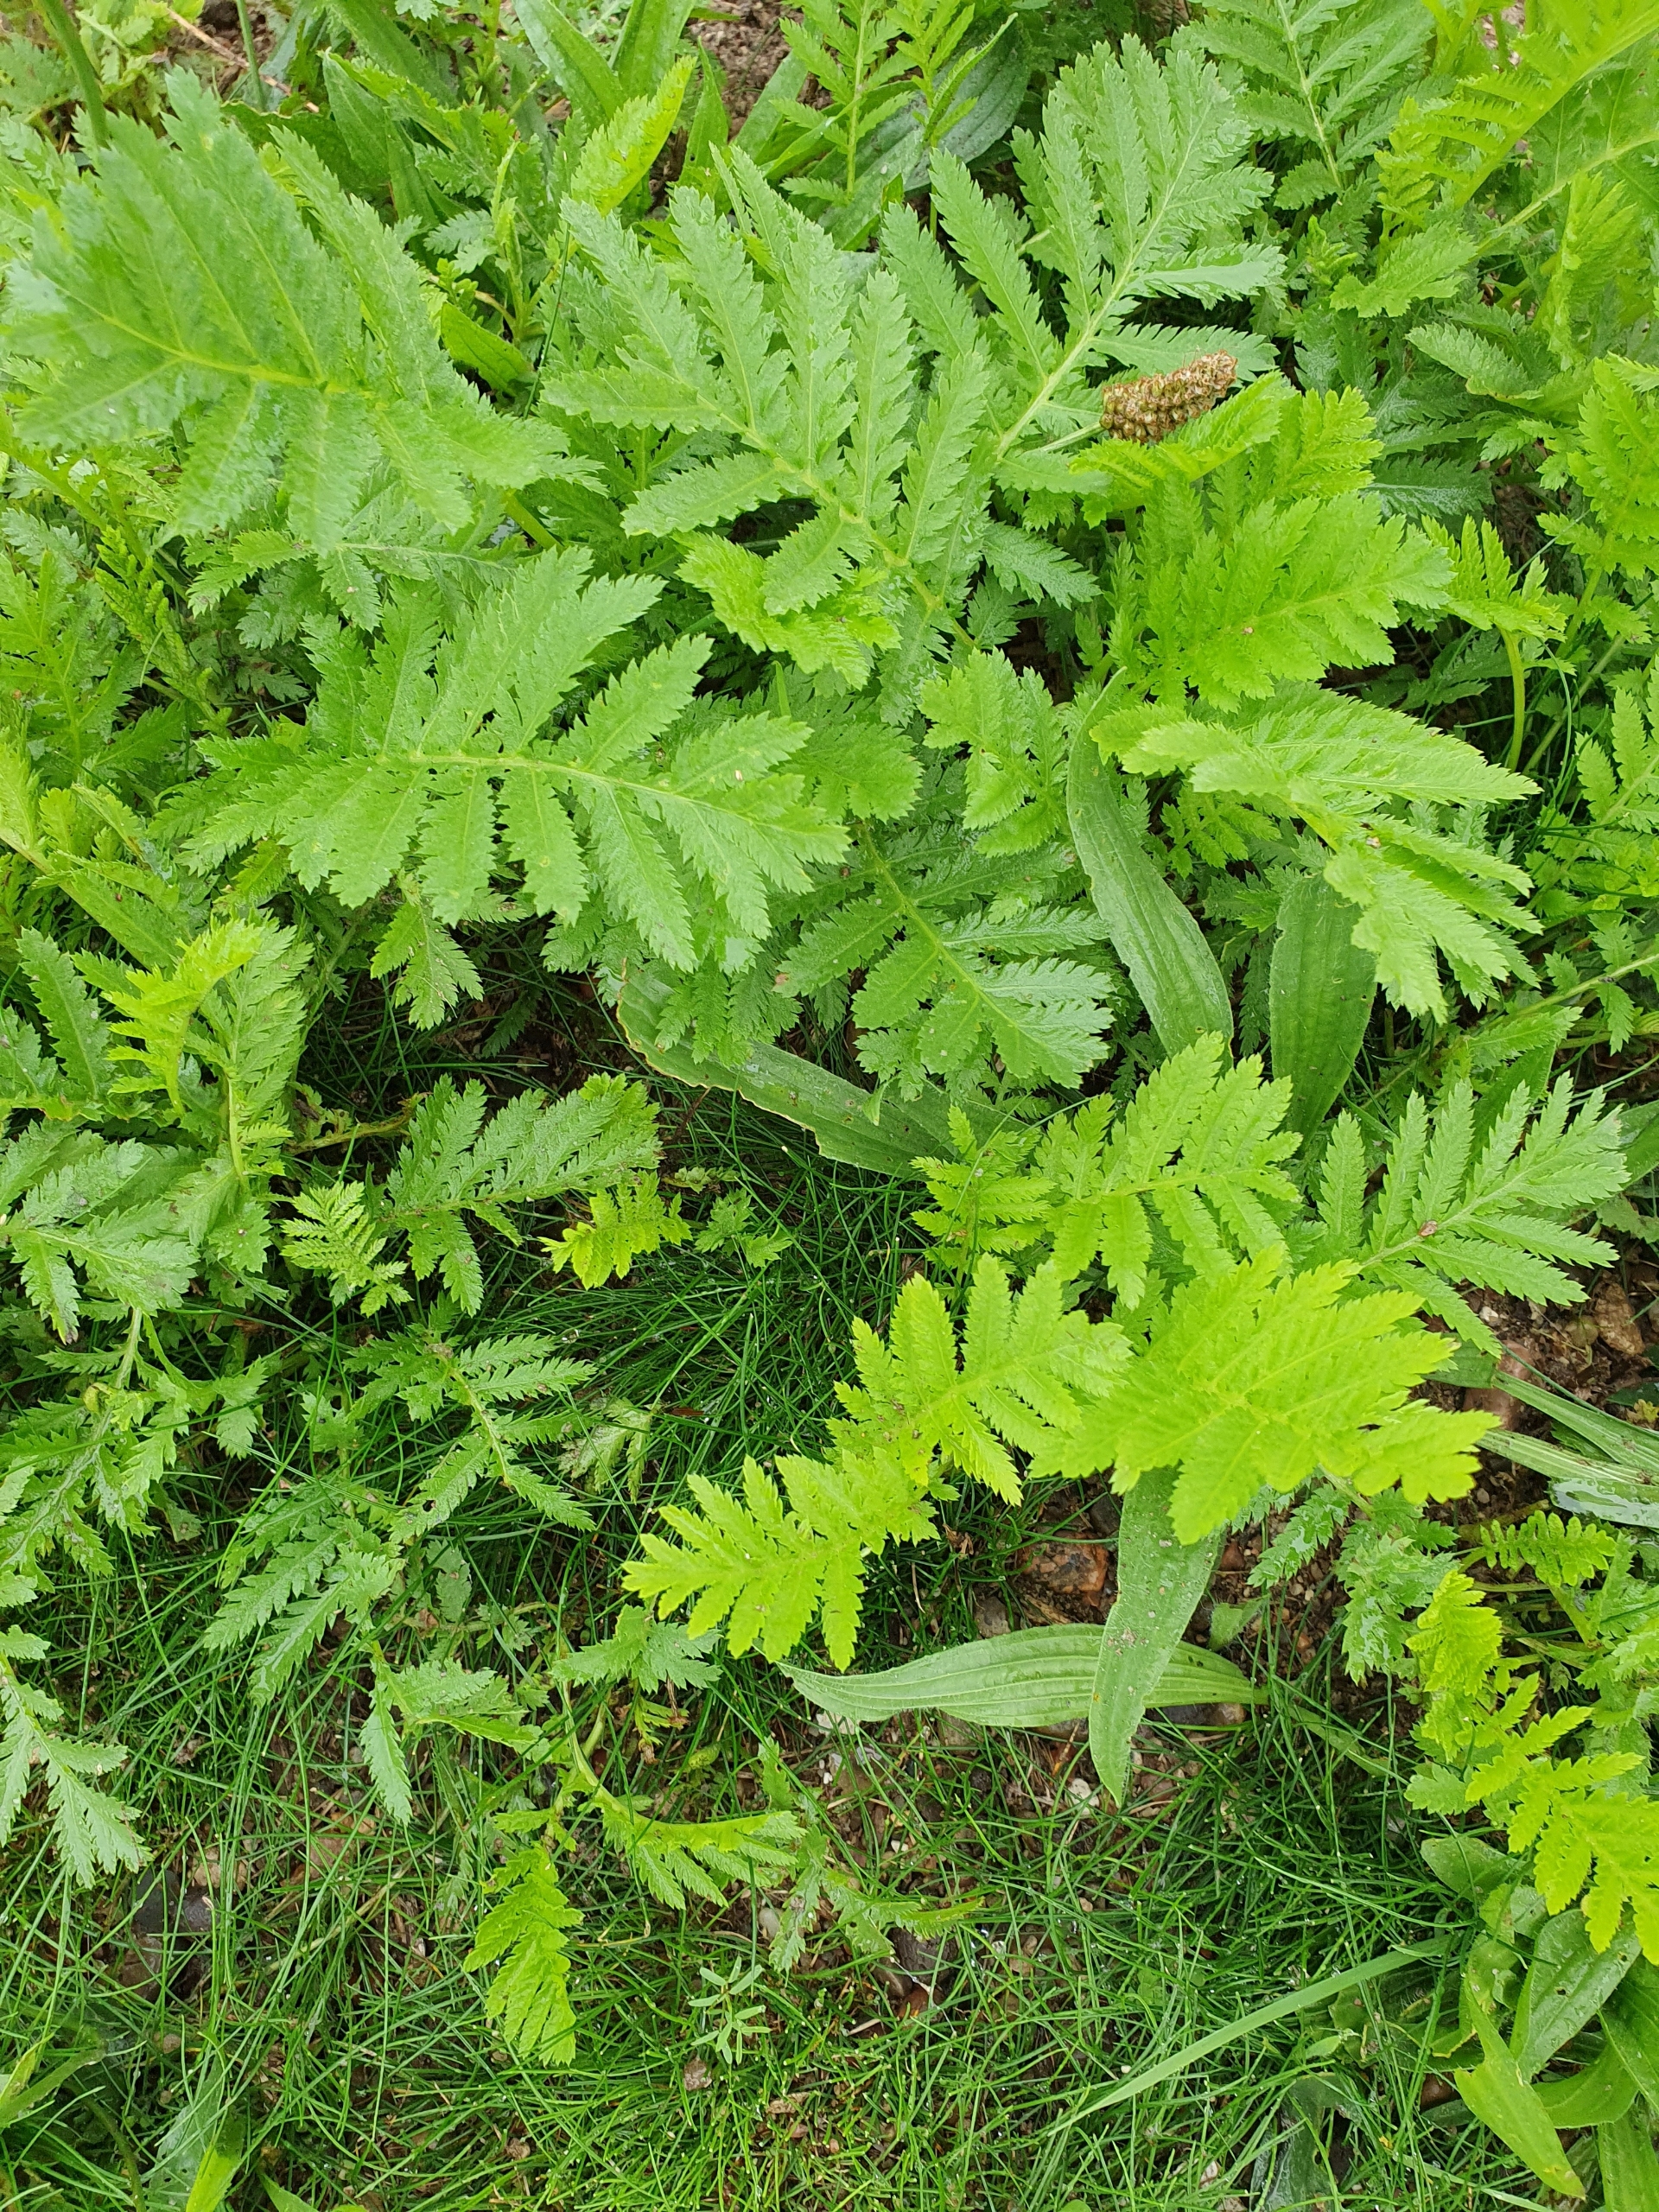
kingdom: Plantae
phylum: Tracheophyta
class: Magnoliopsida
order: Asterales
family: Asteraceae
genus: Tanacetum
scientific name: Tanacetum vulgare
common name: Rejnfan
